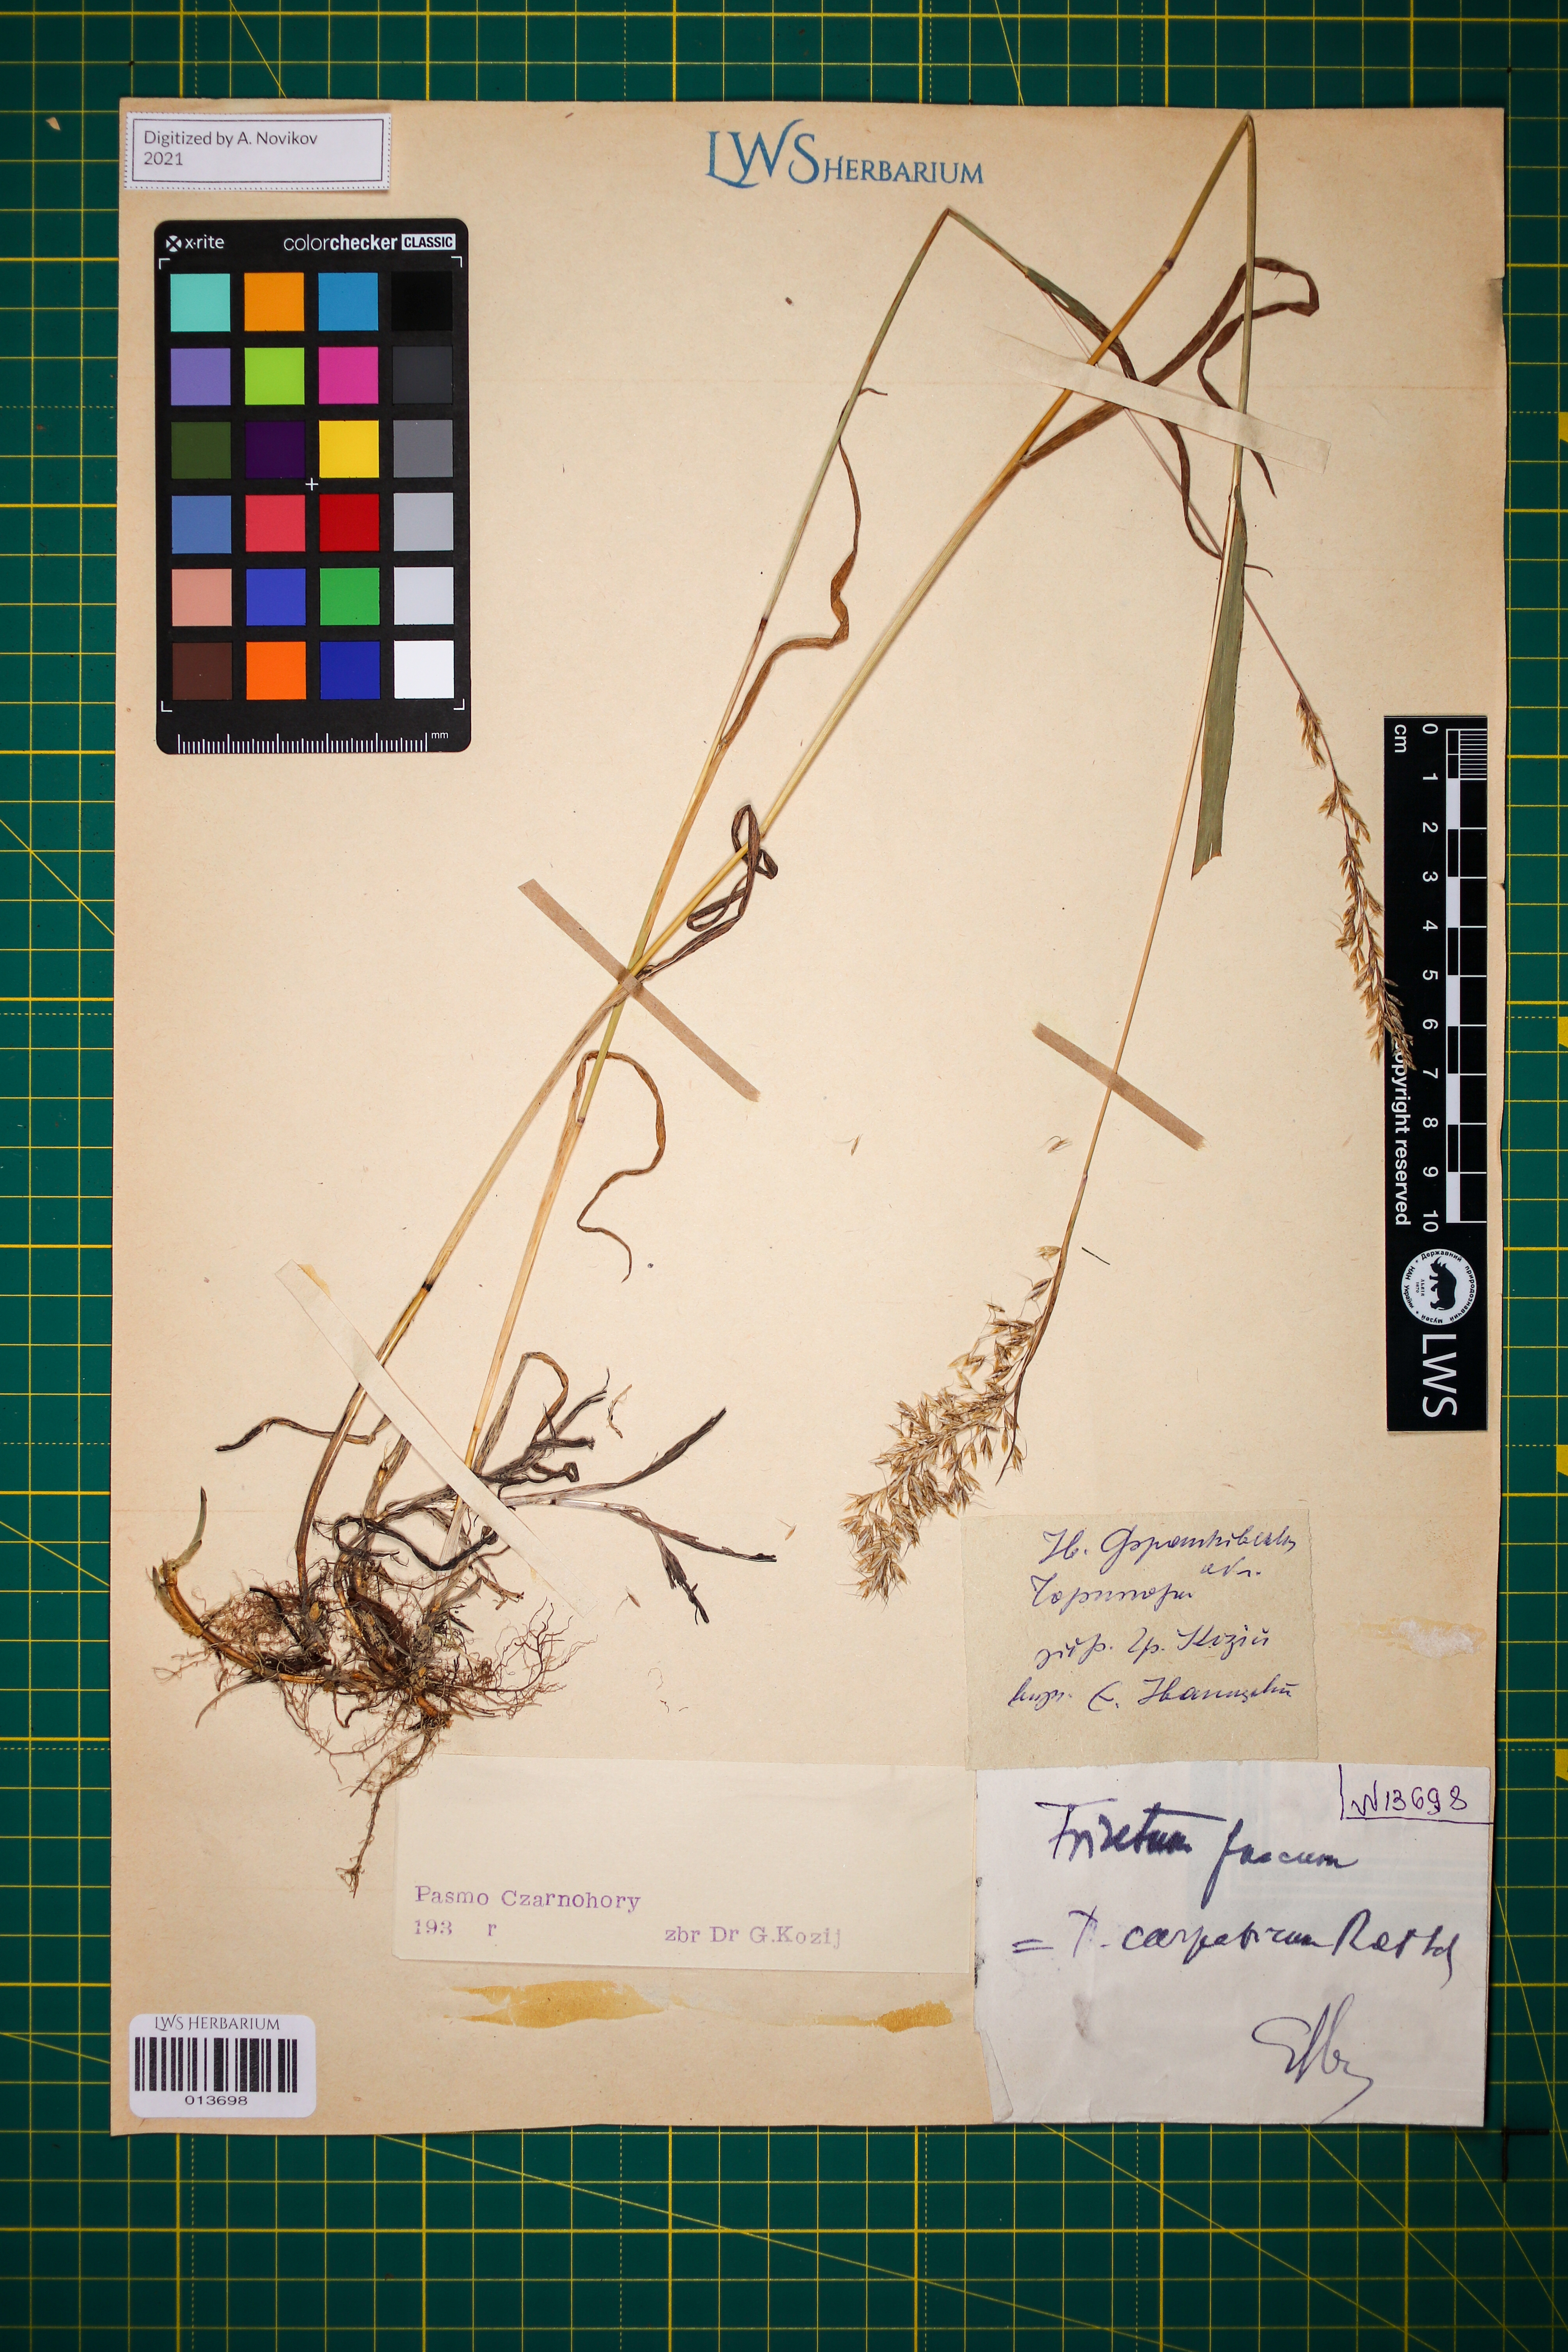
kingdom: Plantae
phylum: Tracheophyta
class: Liliopsida
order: Poales
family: Poaceae
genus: Trisetum
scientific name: Trisetum fuscum
